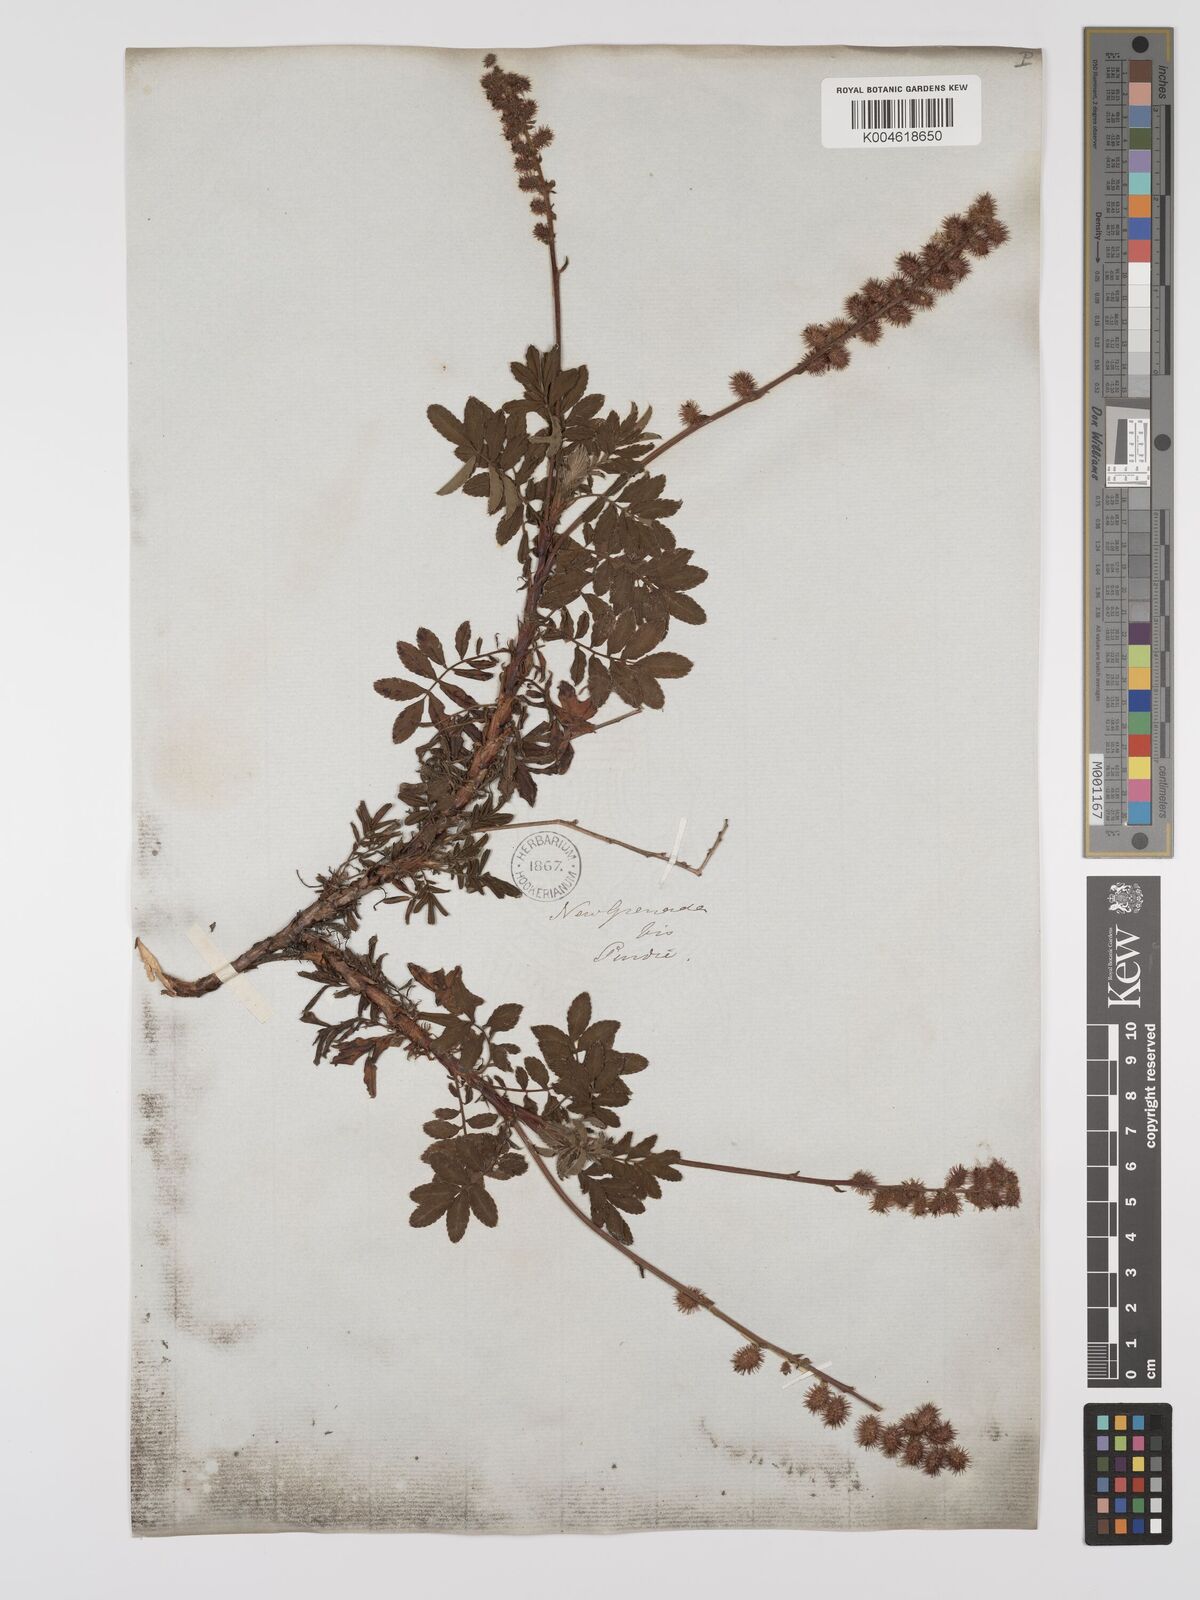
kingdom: Plantae
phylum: Tracheophyta
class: Magnoliopsida
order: Rosales
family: Rosaceae
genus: Acaena
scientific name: Acaena elongata
